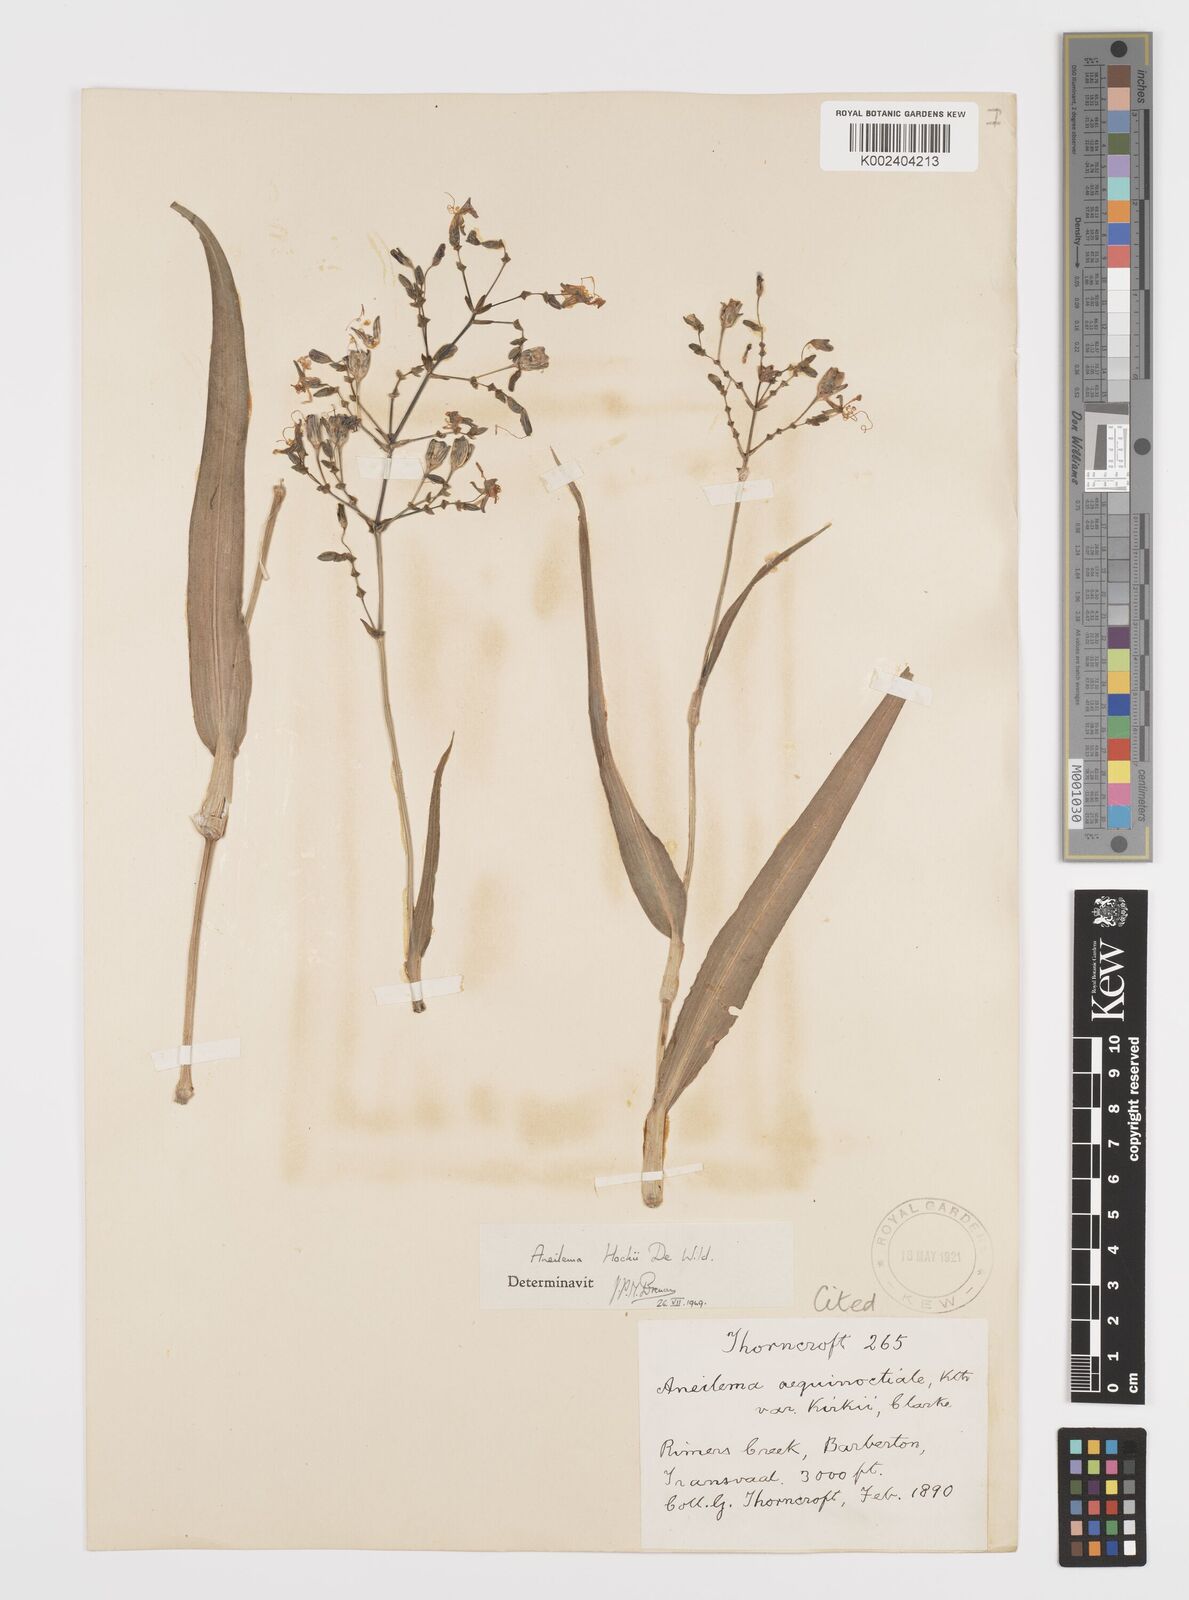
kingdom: Plantae
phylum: Tracheophyta
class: Liliopsida
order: Commelinales
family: Commelinaceae
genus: Aneilema
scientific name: Aneilema hockii
